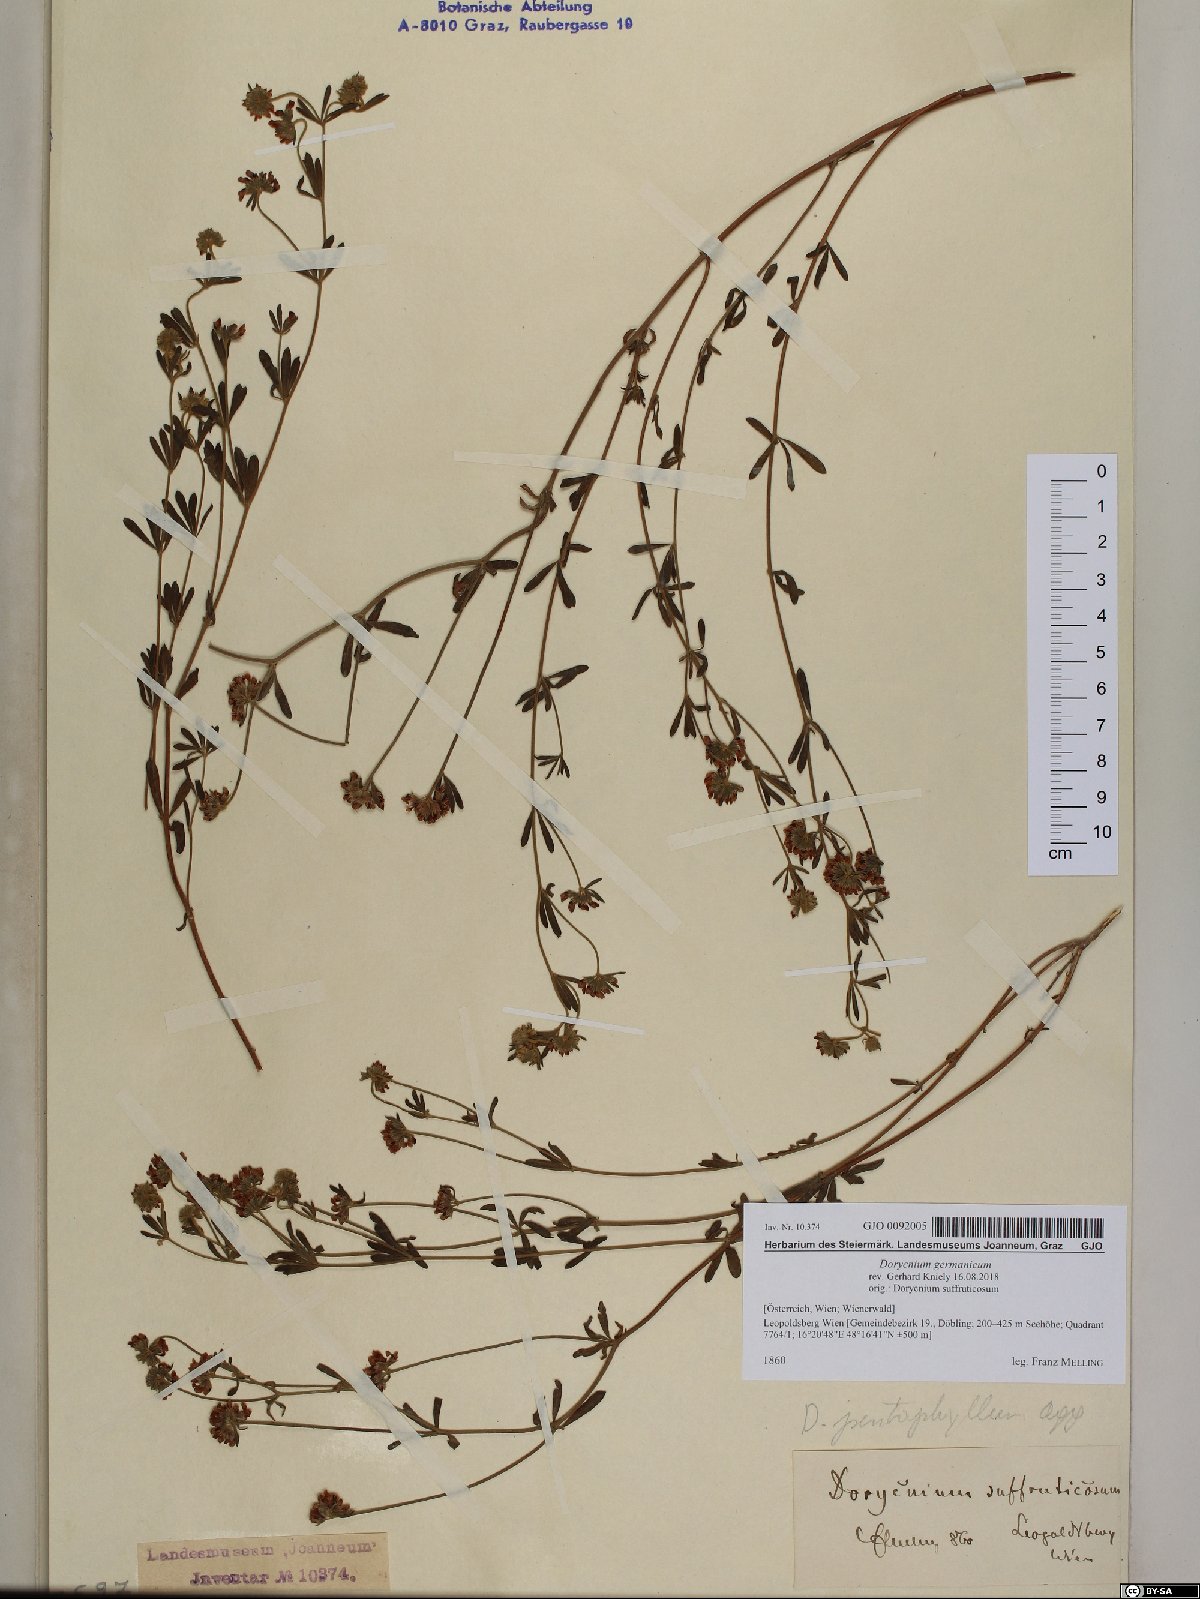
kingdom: Plantae
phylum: Tracheophyta
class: Magnoliopsida
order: Fabales
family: Fabaceae
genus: Lotus
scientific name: Lotus germanicus
